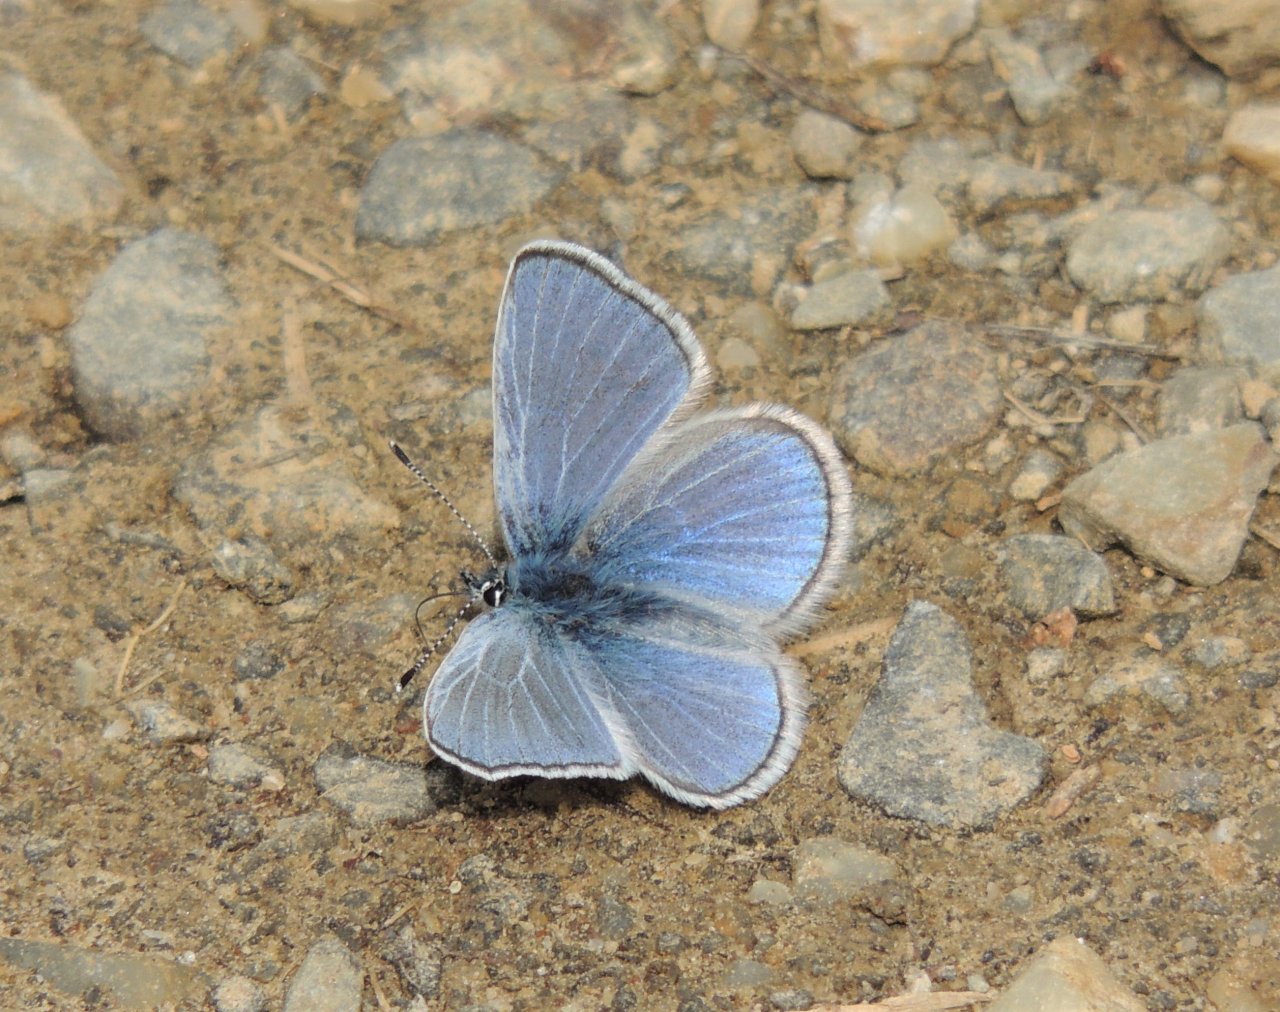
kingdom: Animalia
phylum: Arthropoda
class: Insecta
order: Lepidoptera
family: Lycaenidae
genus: Glaucopsyche
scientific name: Glaucopsyche lygdamus
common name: Silvery Blue
